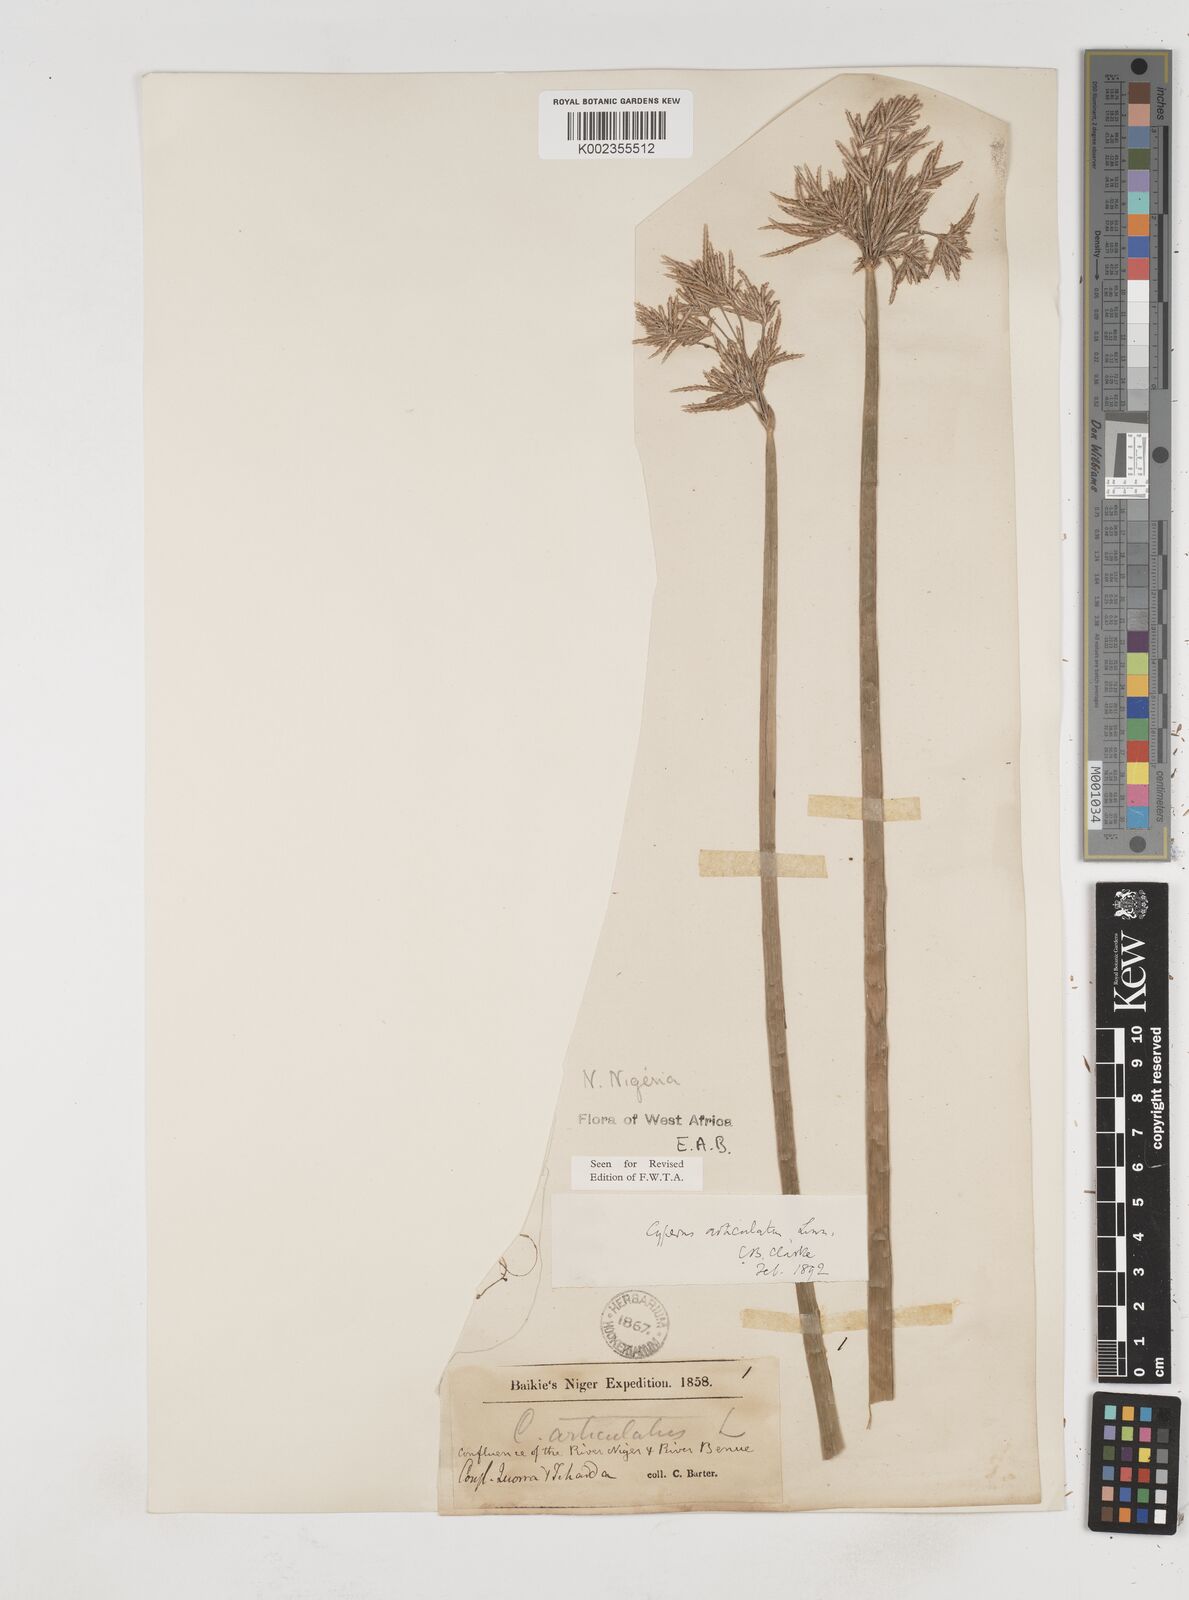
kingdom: Plantae
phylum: Tracheophyta
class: Liliopsida
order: Poales
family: Cyperaceae
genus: Cyperus
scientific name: Cyperus articulatus
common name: Jointed flatsedge
